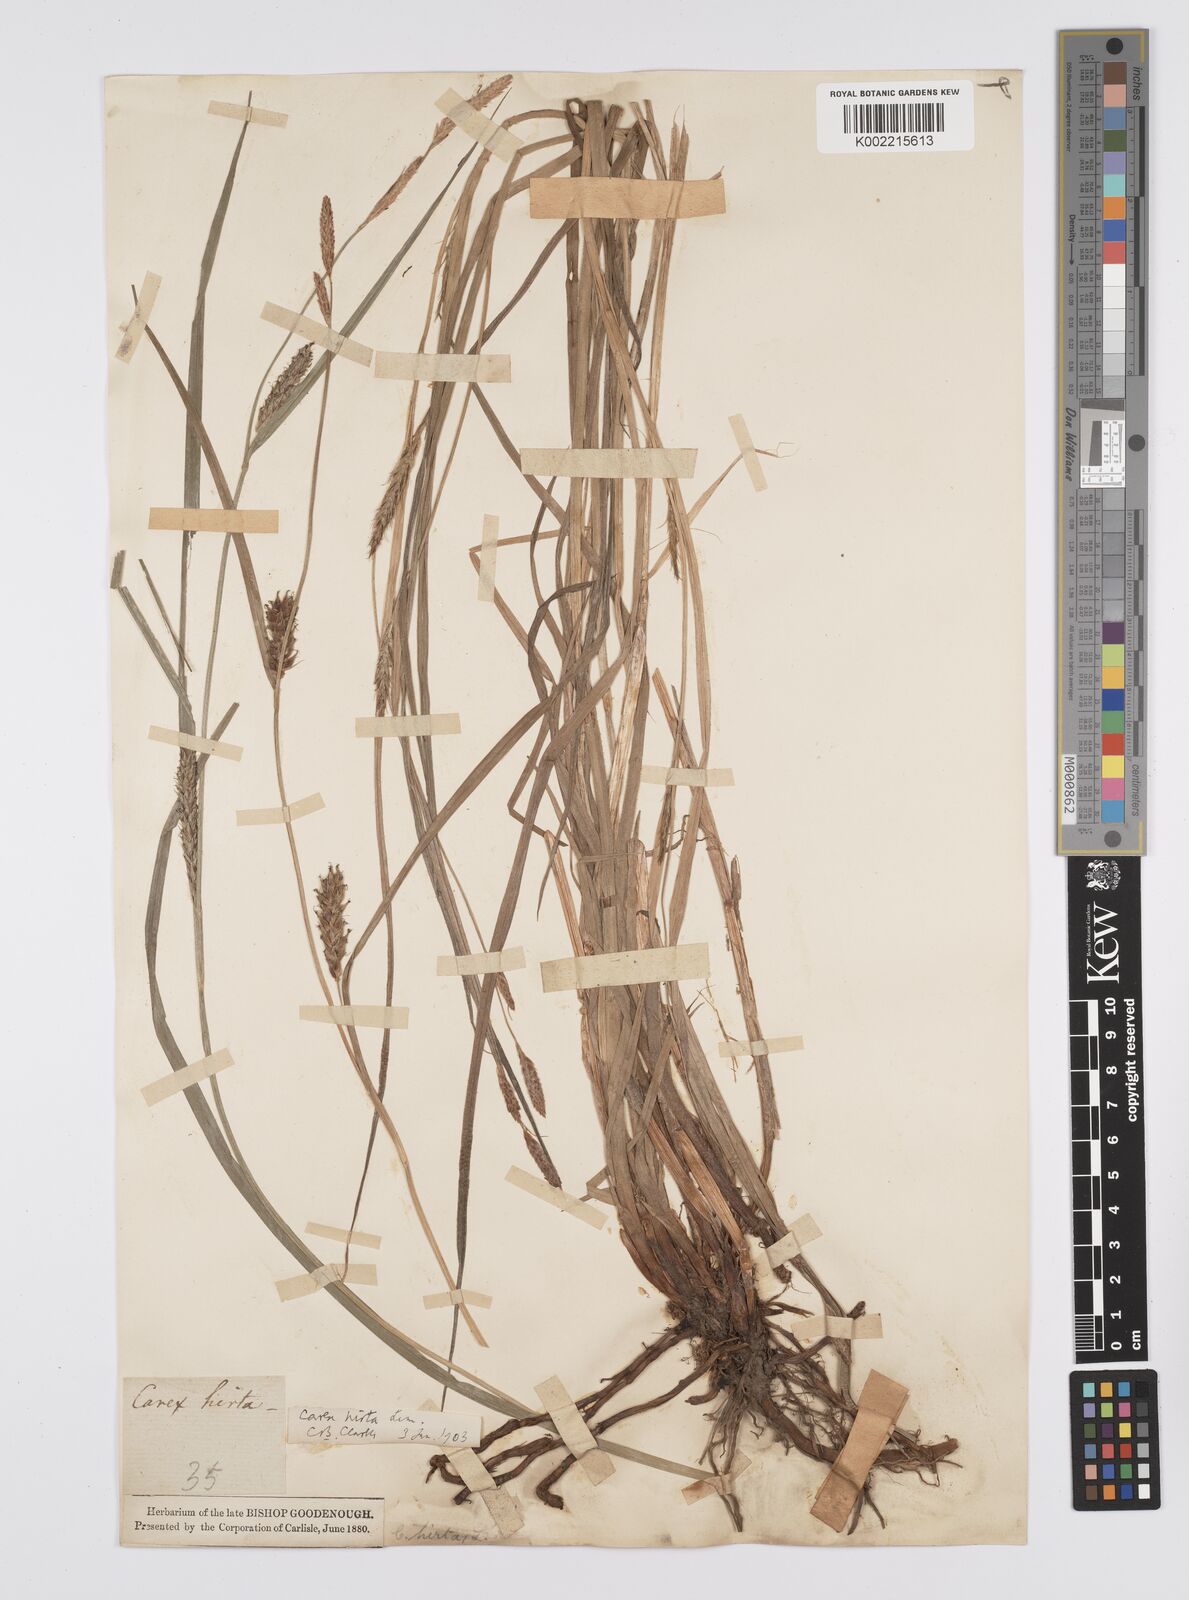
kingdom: Plantae
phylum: Tracheophyta
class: Liliopsida
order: Poales
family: Cyperaceae
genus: Carex
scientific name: Carex hirta
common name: Hairy sedge
